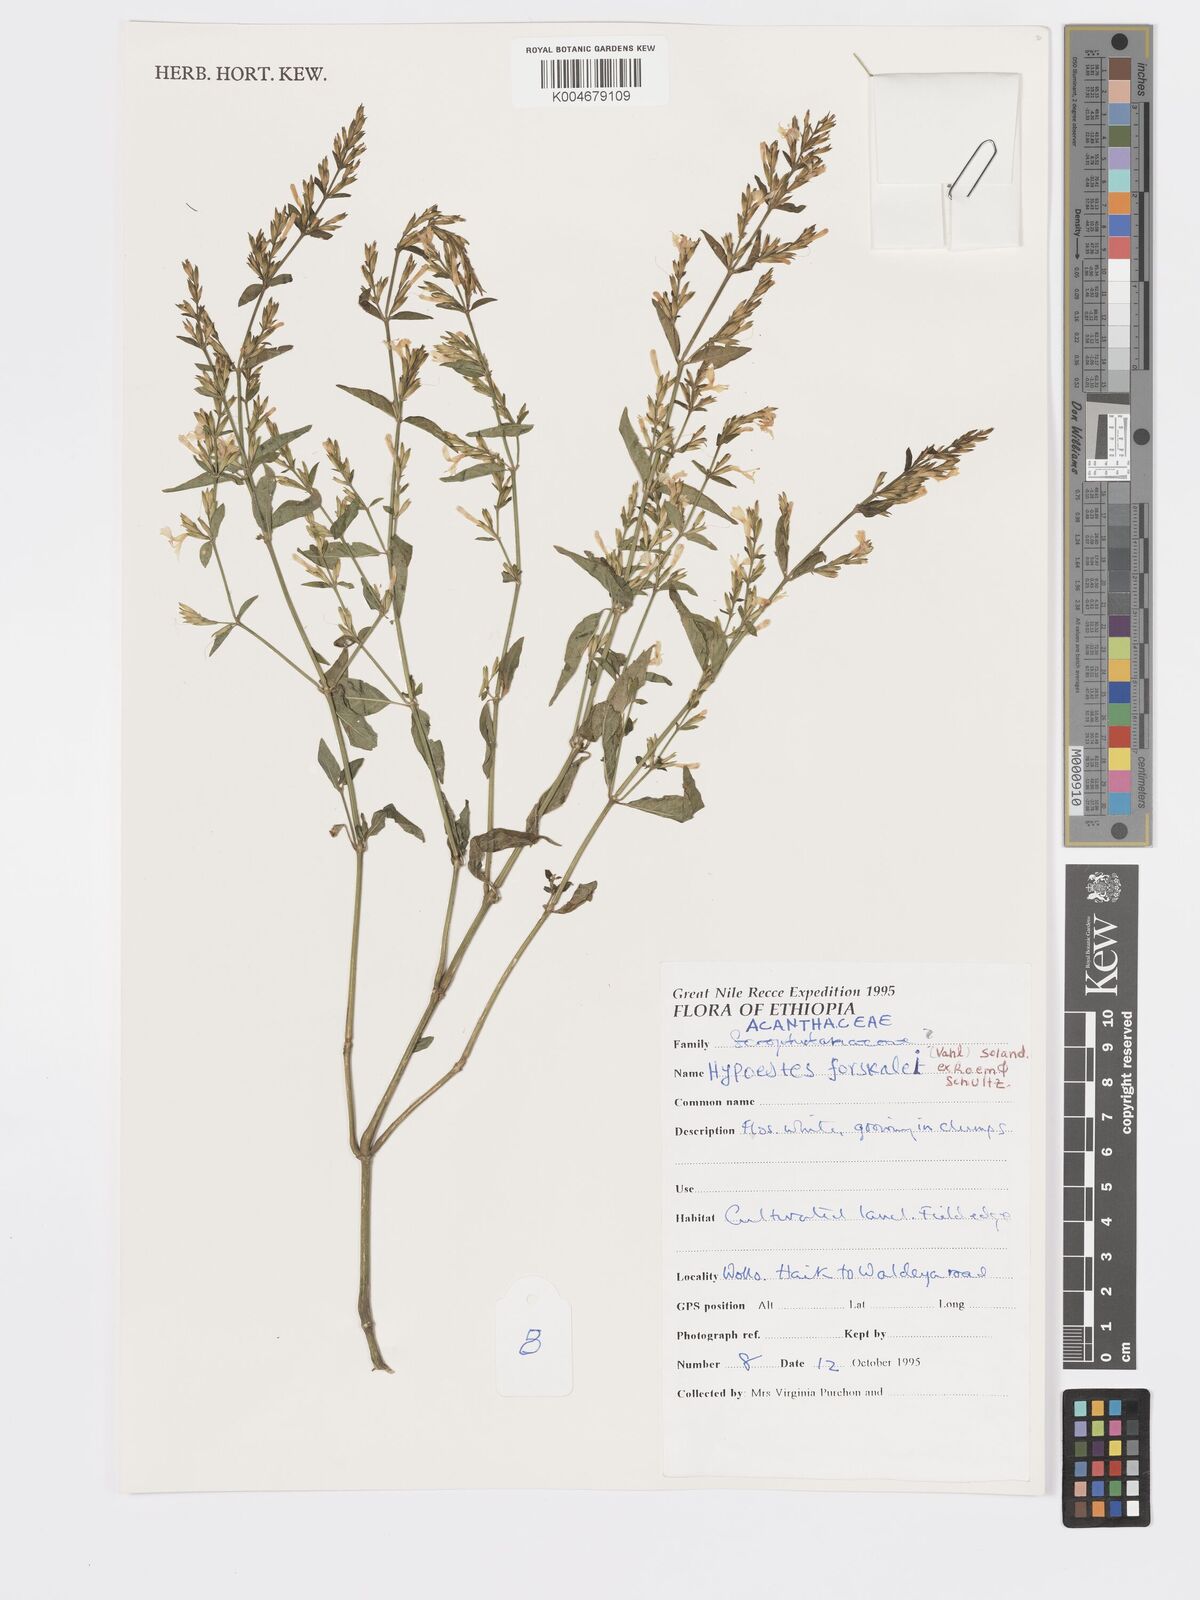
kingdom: Plantae
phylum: Tracheophyta
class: Magnoliopsida
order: Lamiales
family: Acanthaceae
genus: Hypoestes
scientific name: Hypoestes forskaolii
